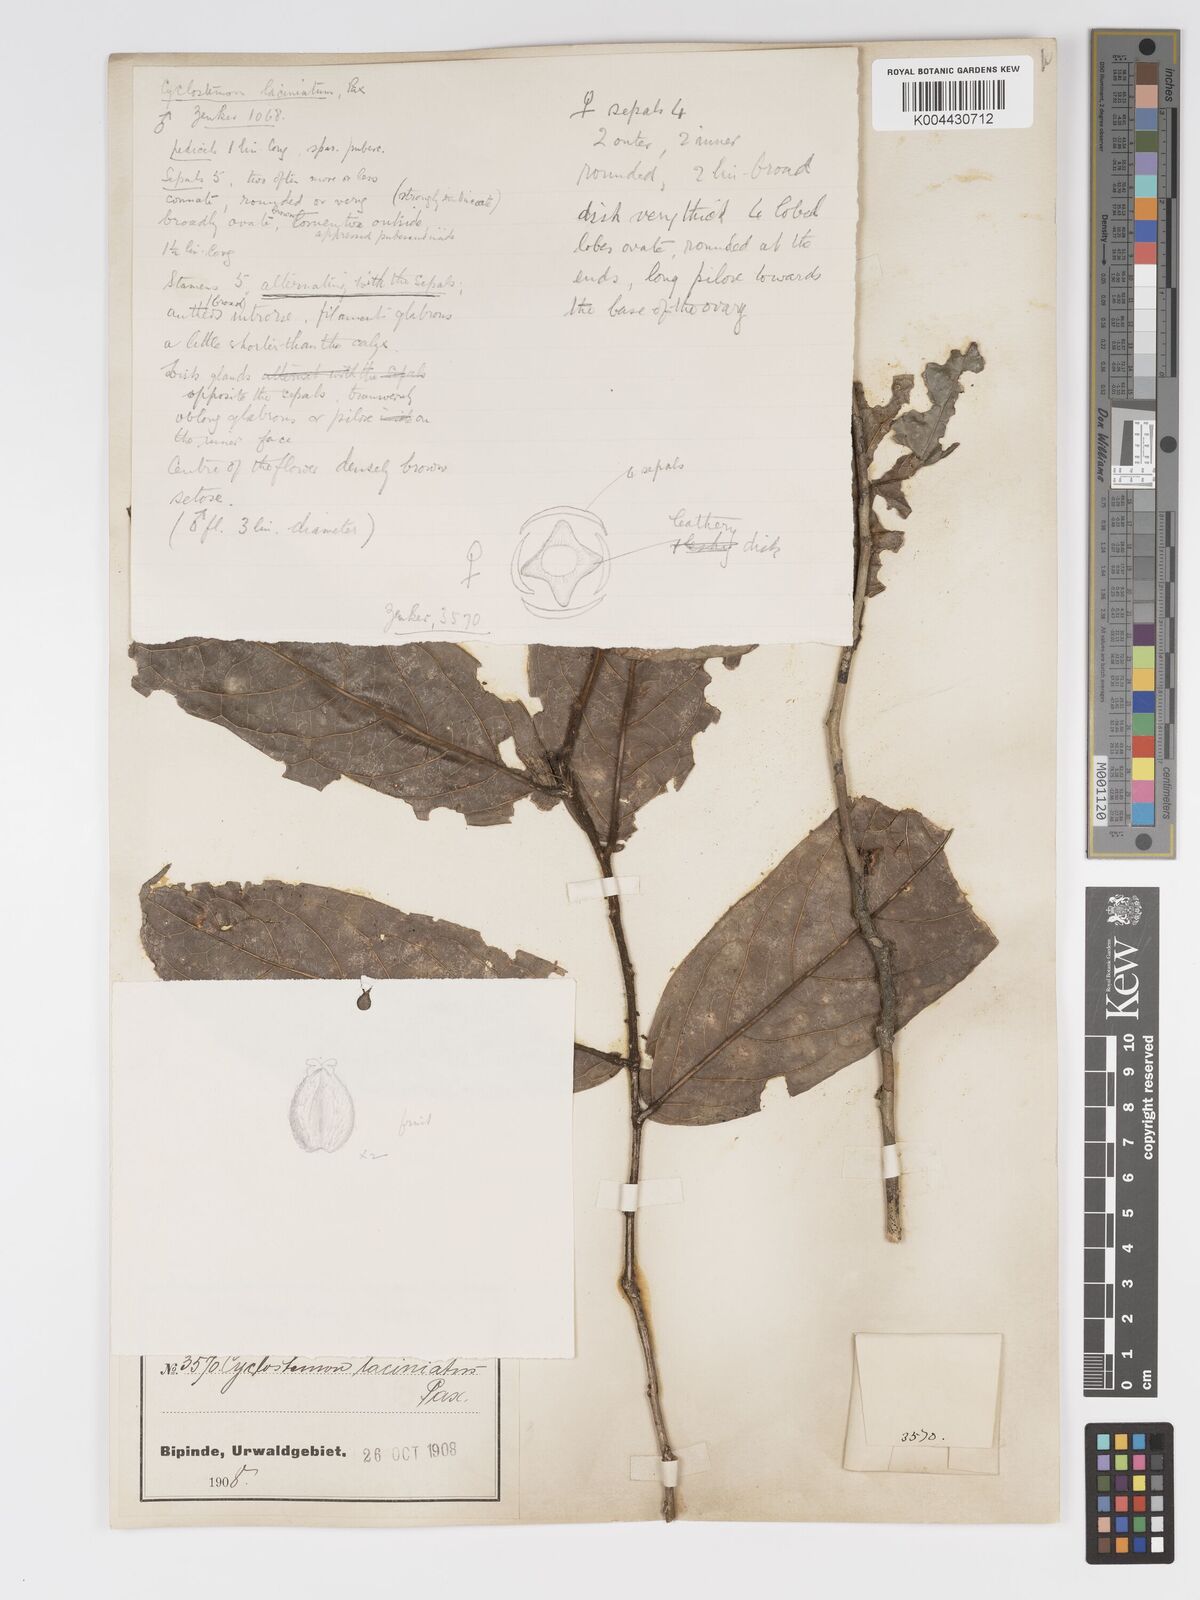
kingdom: Plantae
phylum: Tracheophyta
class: Magnoliopsida
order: Malpighiales
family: Putranjivaceae
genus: Drypetes
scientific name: Drypetes laciniata
